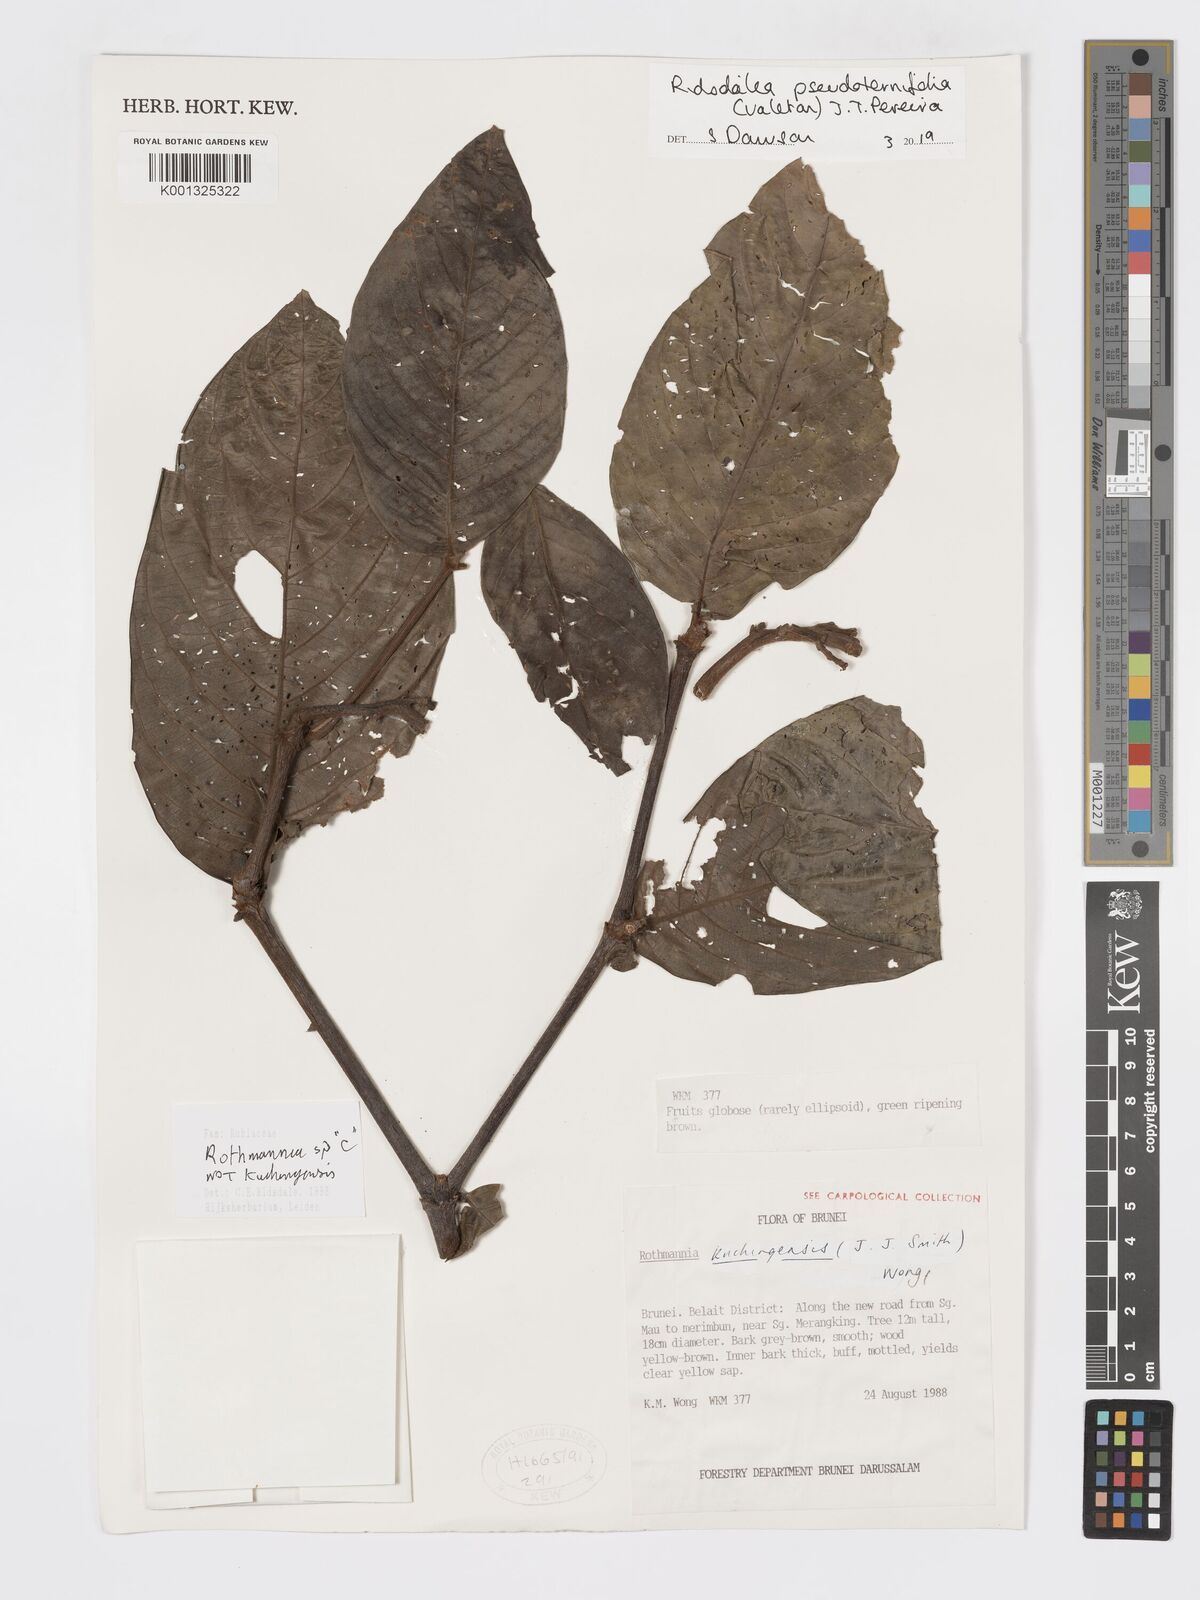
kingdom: Plantae
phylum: Tracheophyta
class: Magnoliopsida
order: Gentianales
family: Rubiaceae
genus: Ridsdalea
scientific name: Ridsdalea pseudoternifolia
